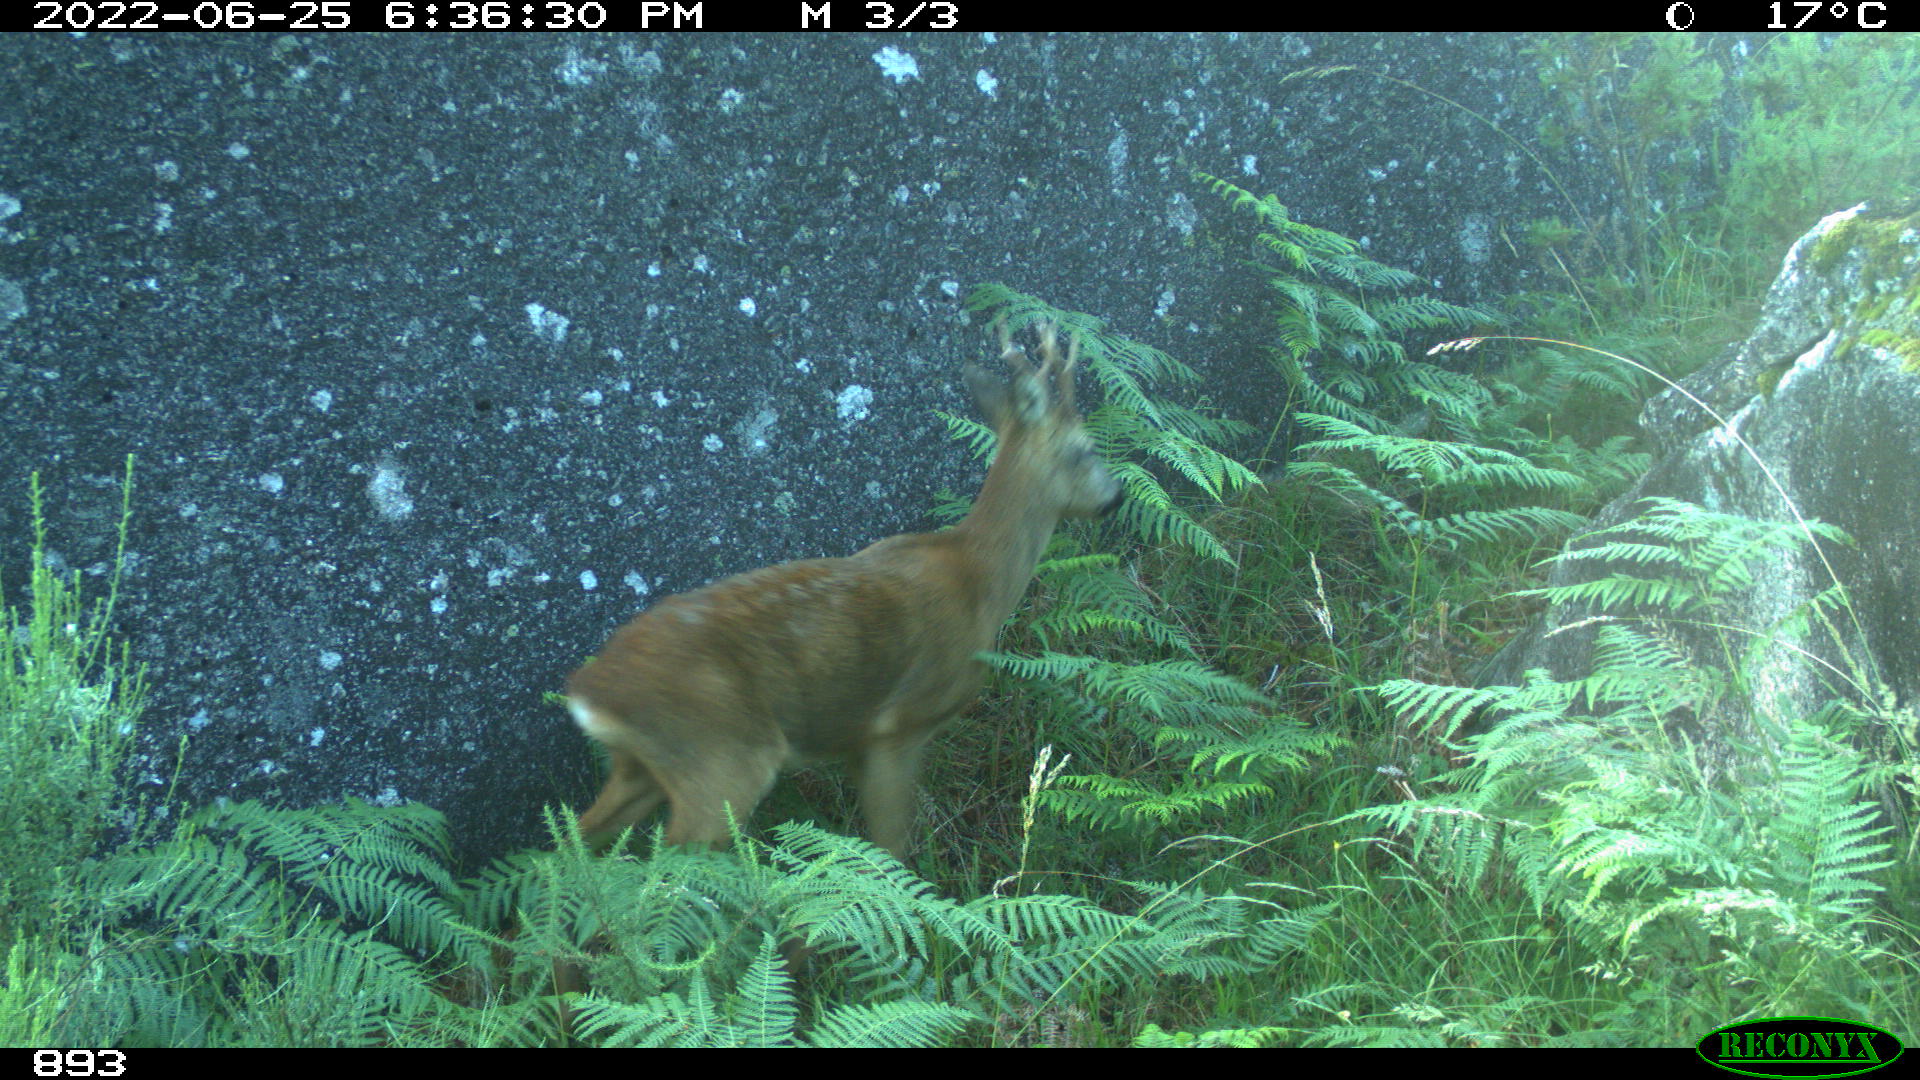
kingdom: Animalia
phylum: Chordata
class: Mammalia
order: Artiodactyla
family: Cervidae
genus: Capreolus
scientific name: Capreolus capreolus
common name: Western roe deer
